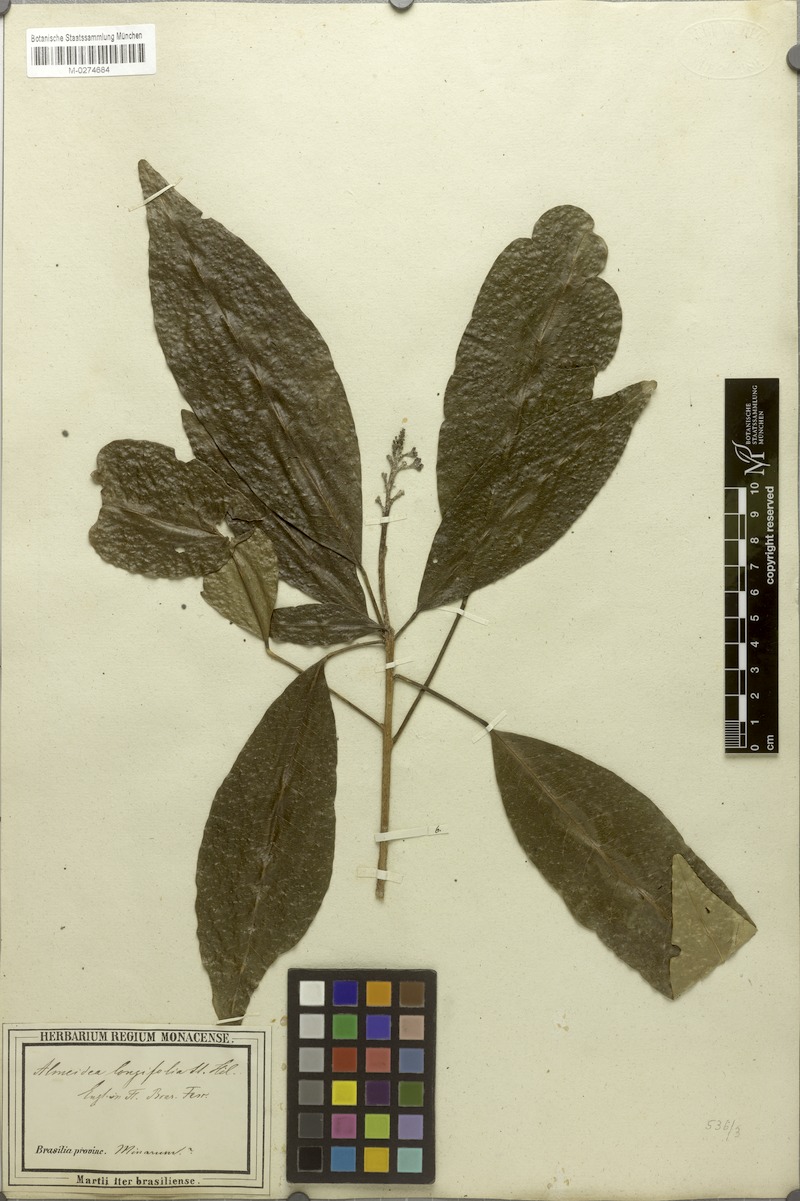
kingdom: Plantae
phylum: Tracheophyta
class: Magnoliopsida
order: Sapindales
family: Rutaceae
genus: Conchocarpus
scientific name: Conchocarpus ruber
